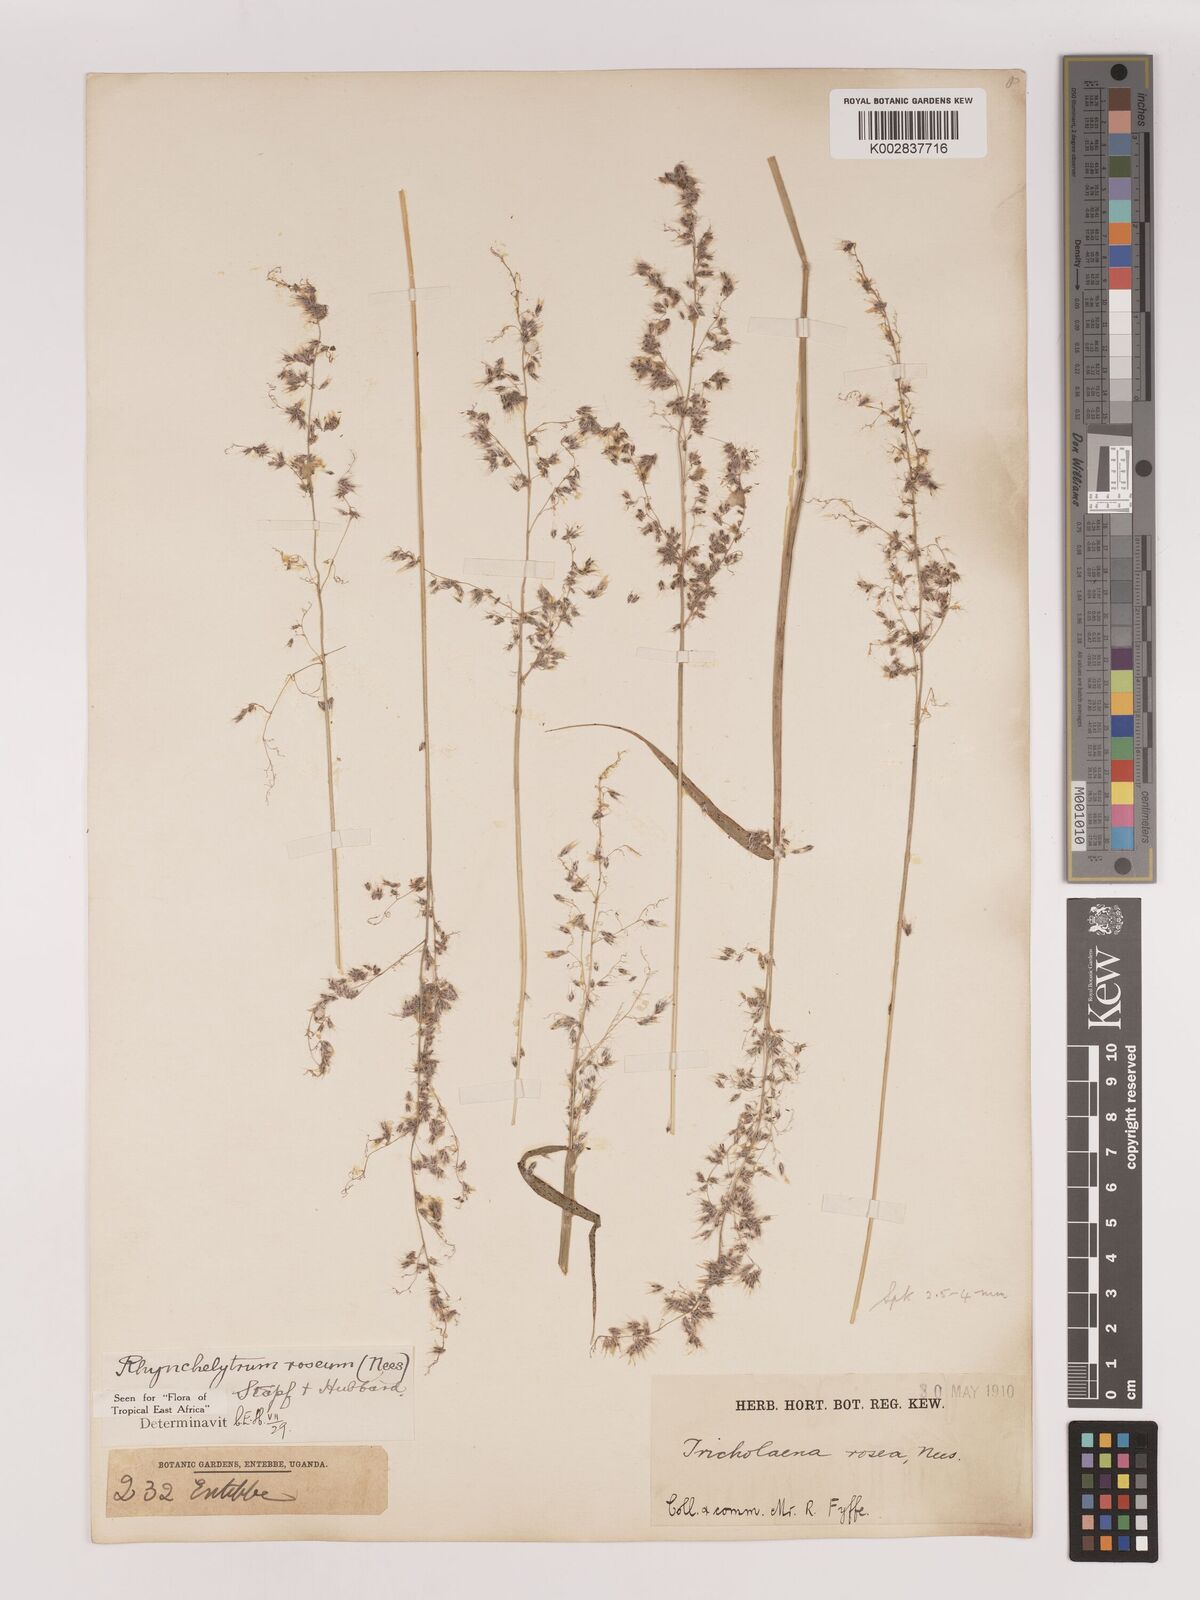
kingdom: Plantae
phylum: Tracheophyta
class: Liliopsida
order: Poales
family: Poaceae
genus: Melinis
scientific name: Melinis repens
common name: Rose natal grass
